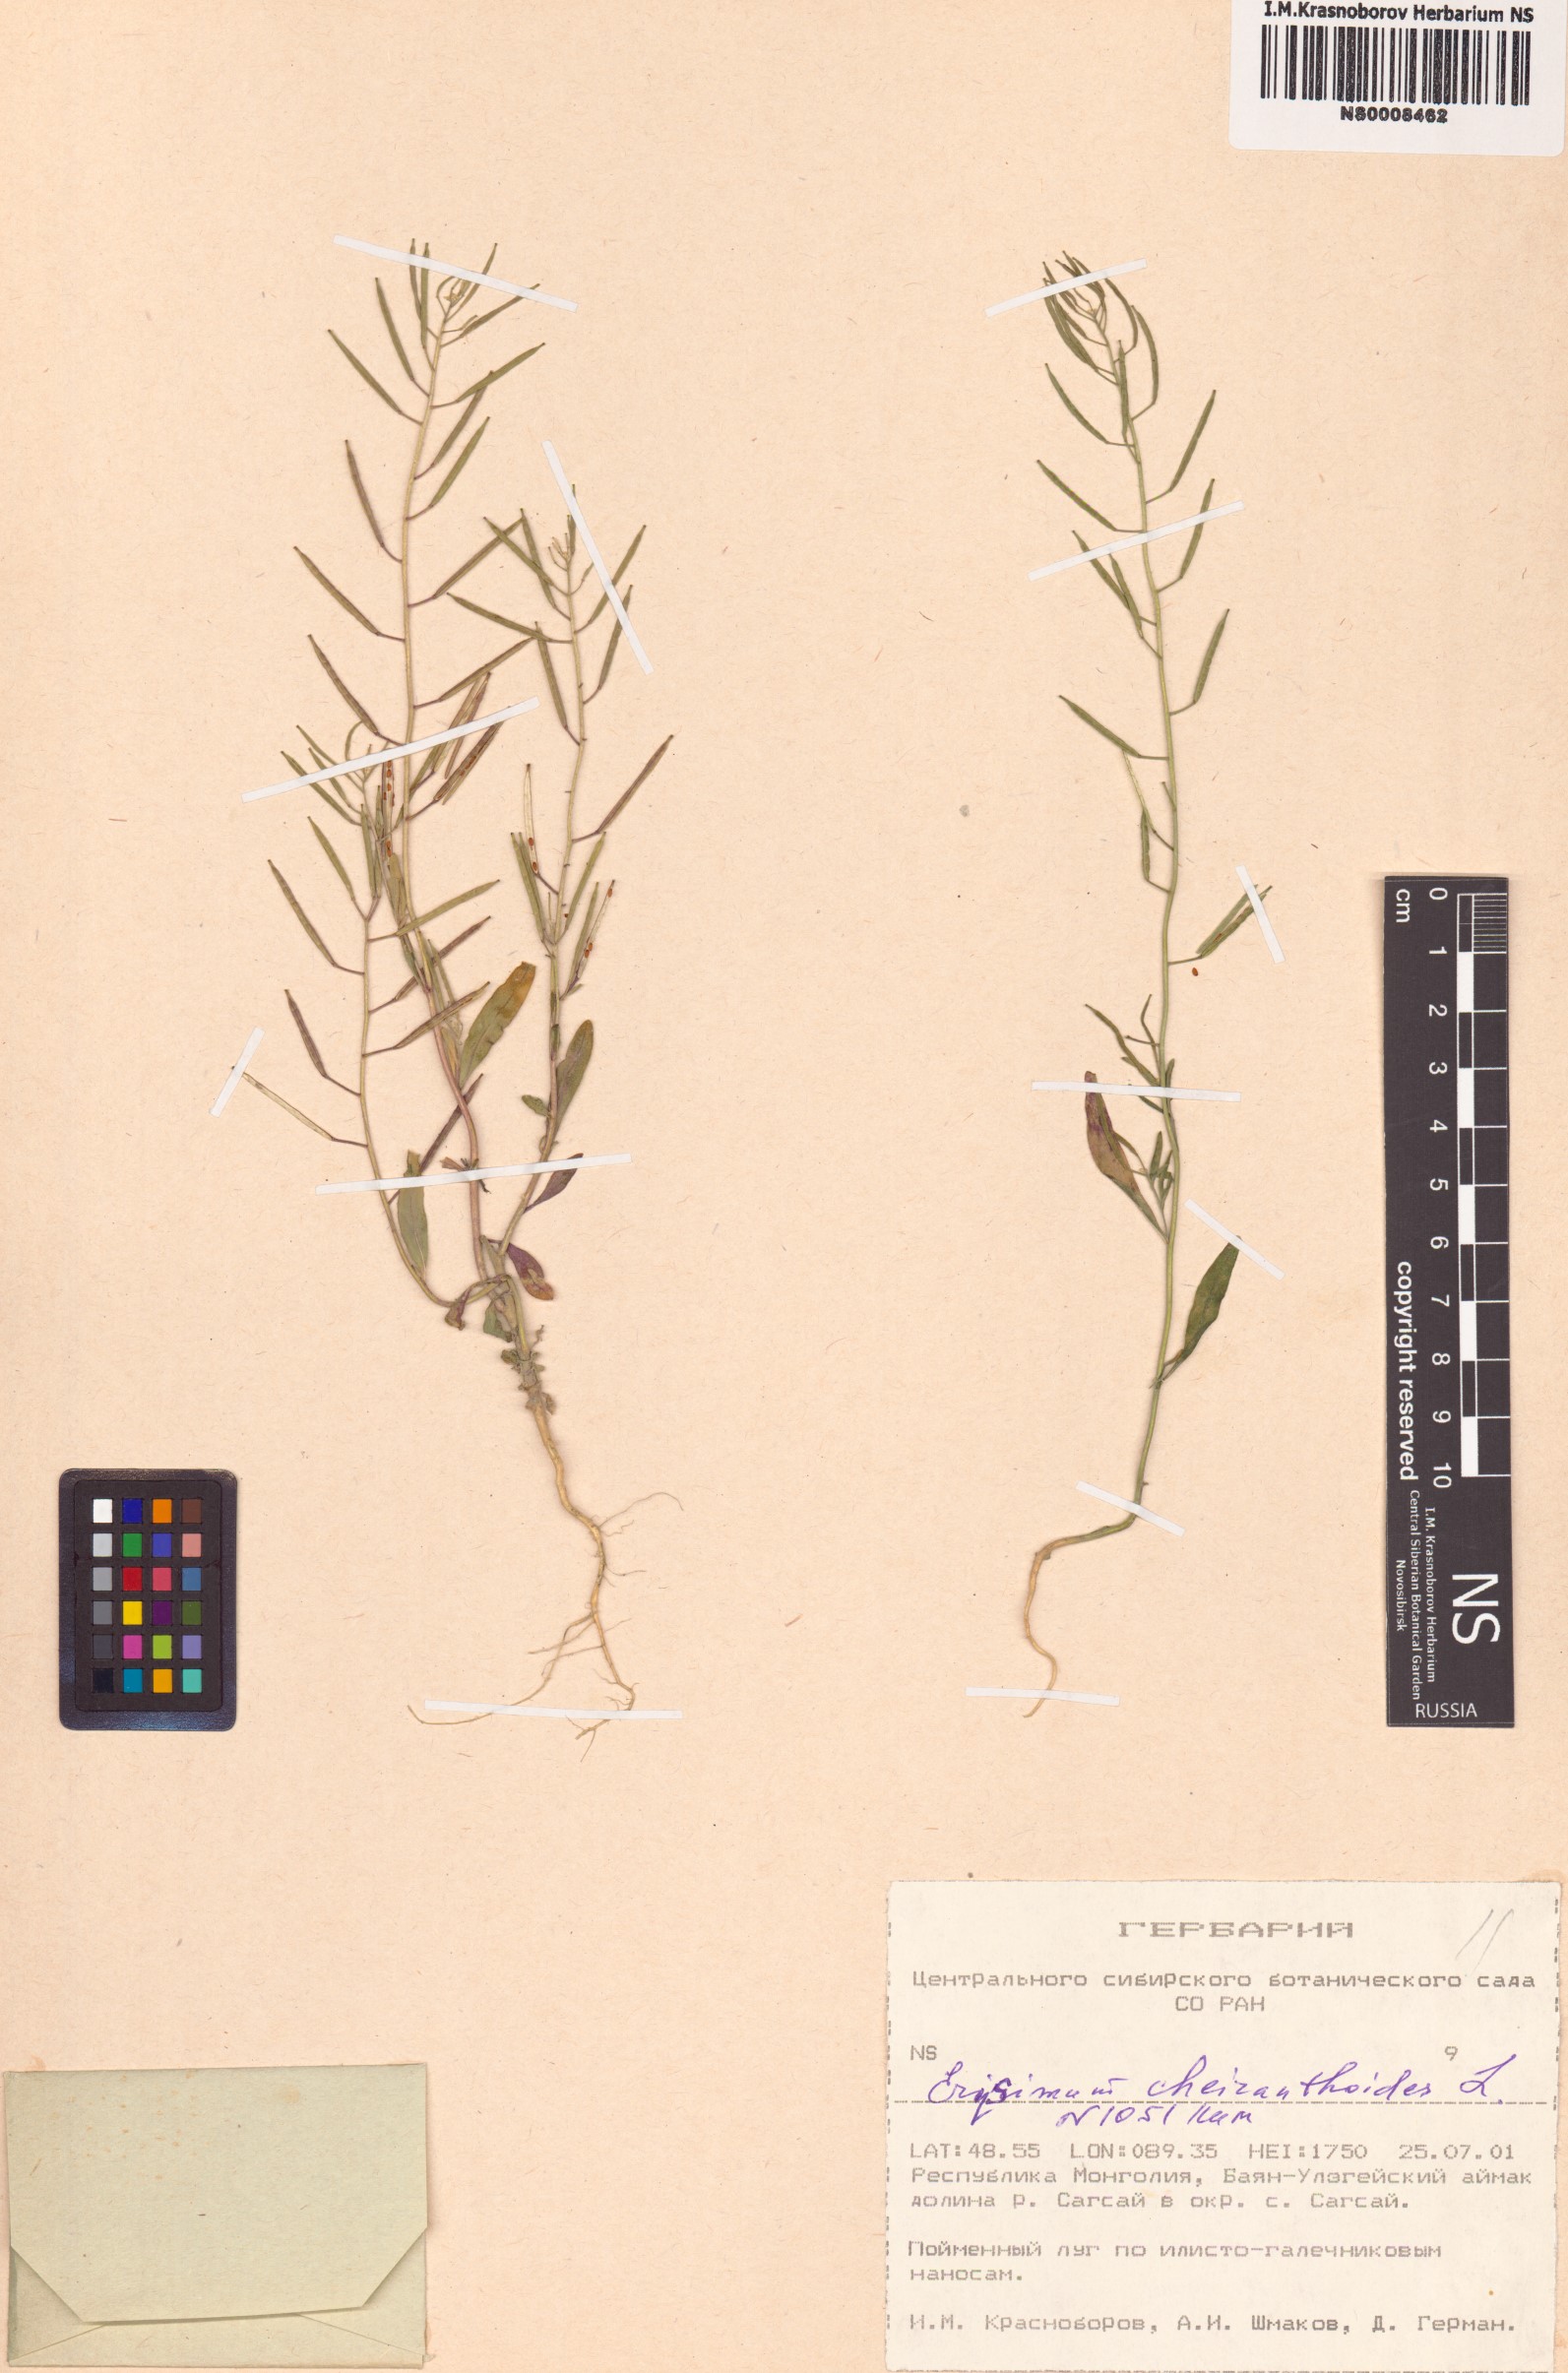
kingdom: Plantae
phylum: Tracheophyta
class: Magnoliopsida
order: Brassicales
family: Brassicaceae
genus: Erysimum
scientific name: Erysimum cheiranthoides
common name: Treacle mustard
